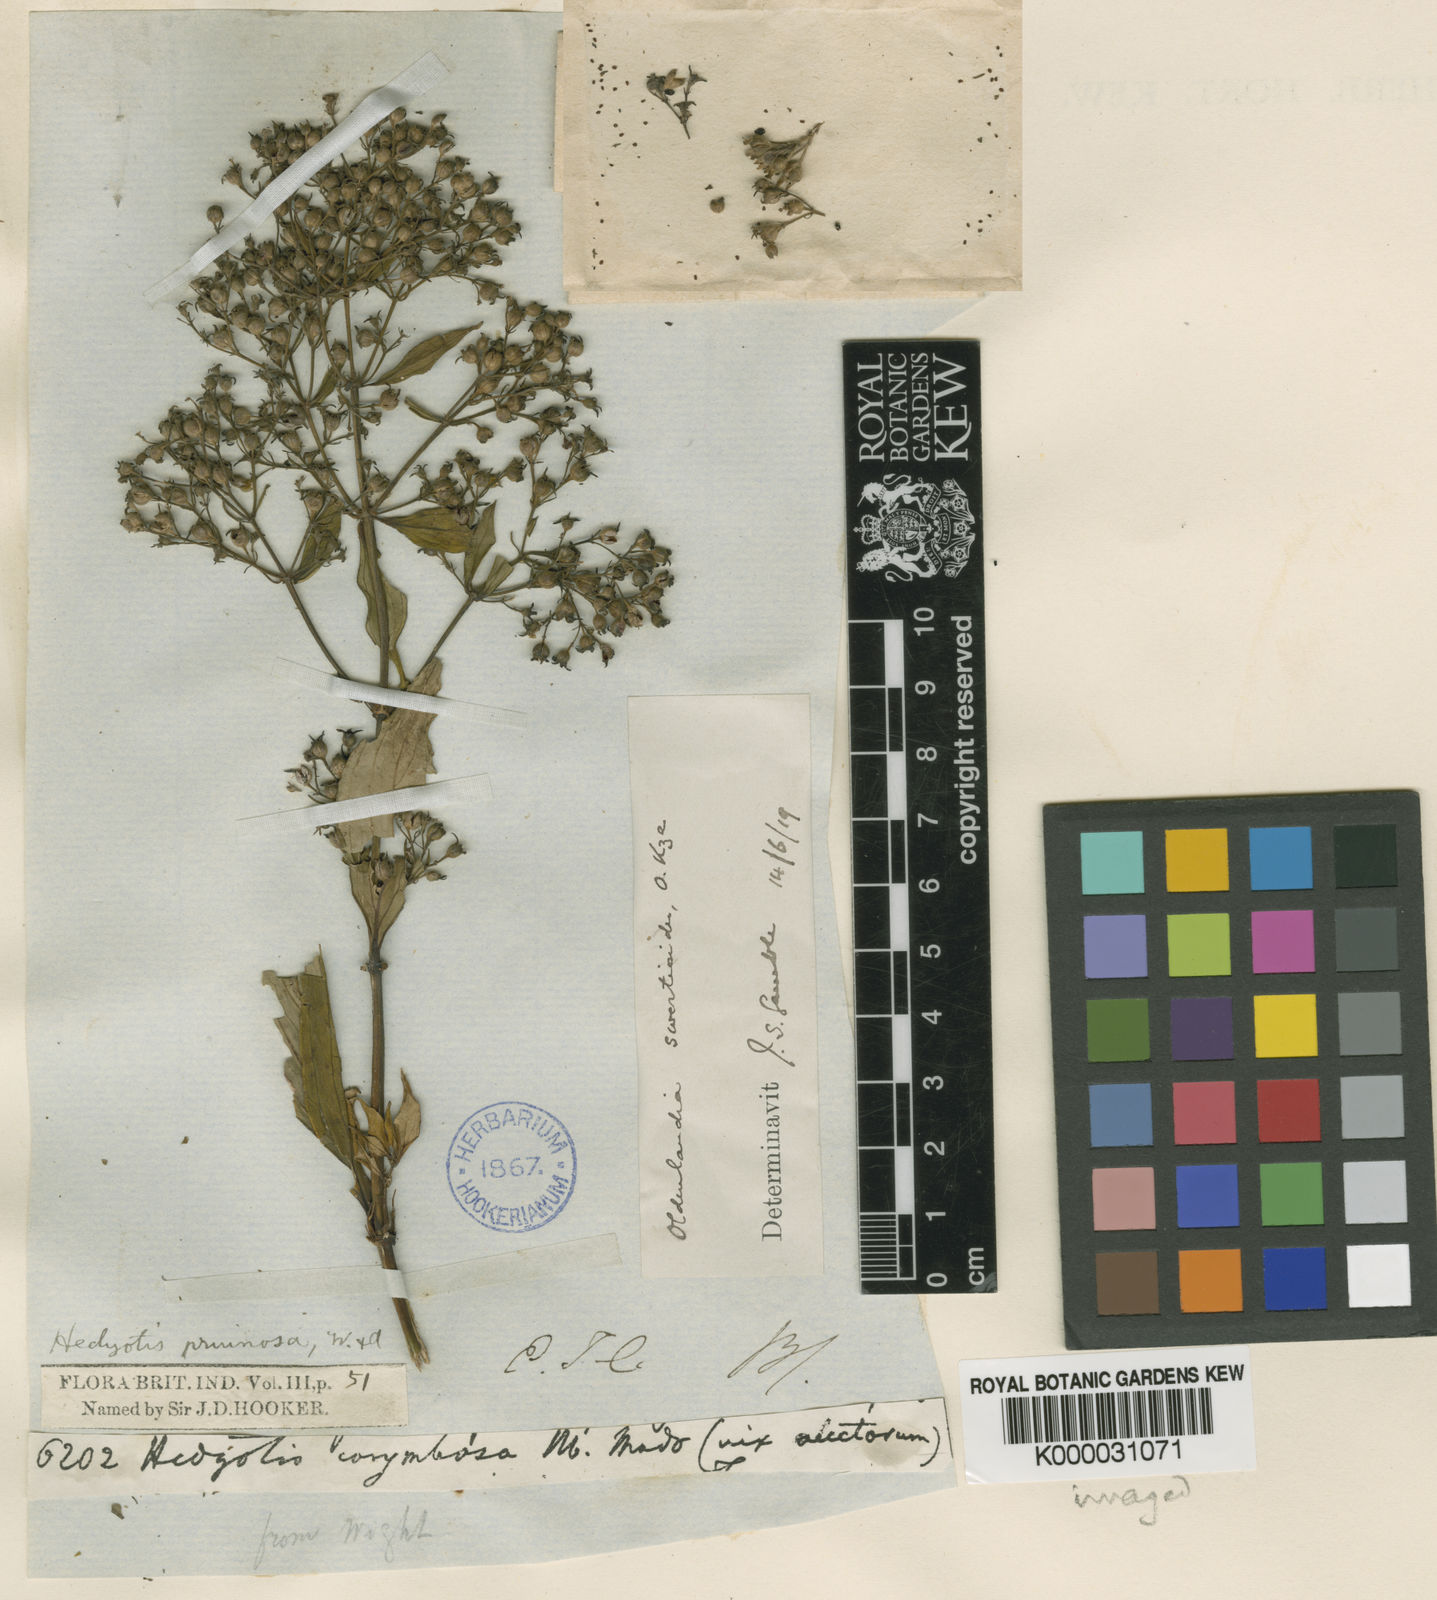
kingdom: Plantae
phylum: Tracheophyta
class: Magnoliopsida
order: Gentianales
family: Rubiaceae
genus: Hedyotis
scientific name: Hedyotis pruinosa
